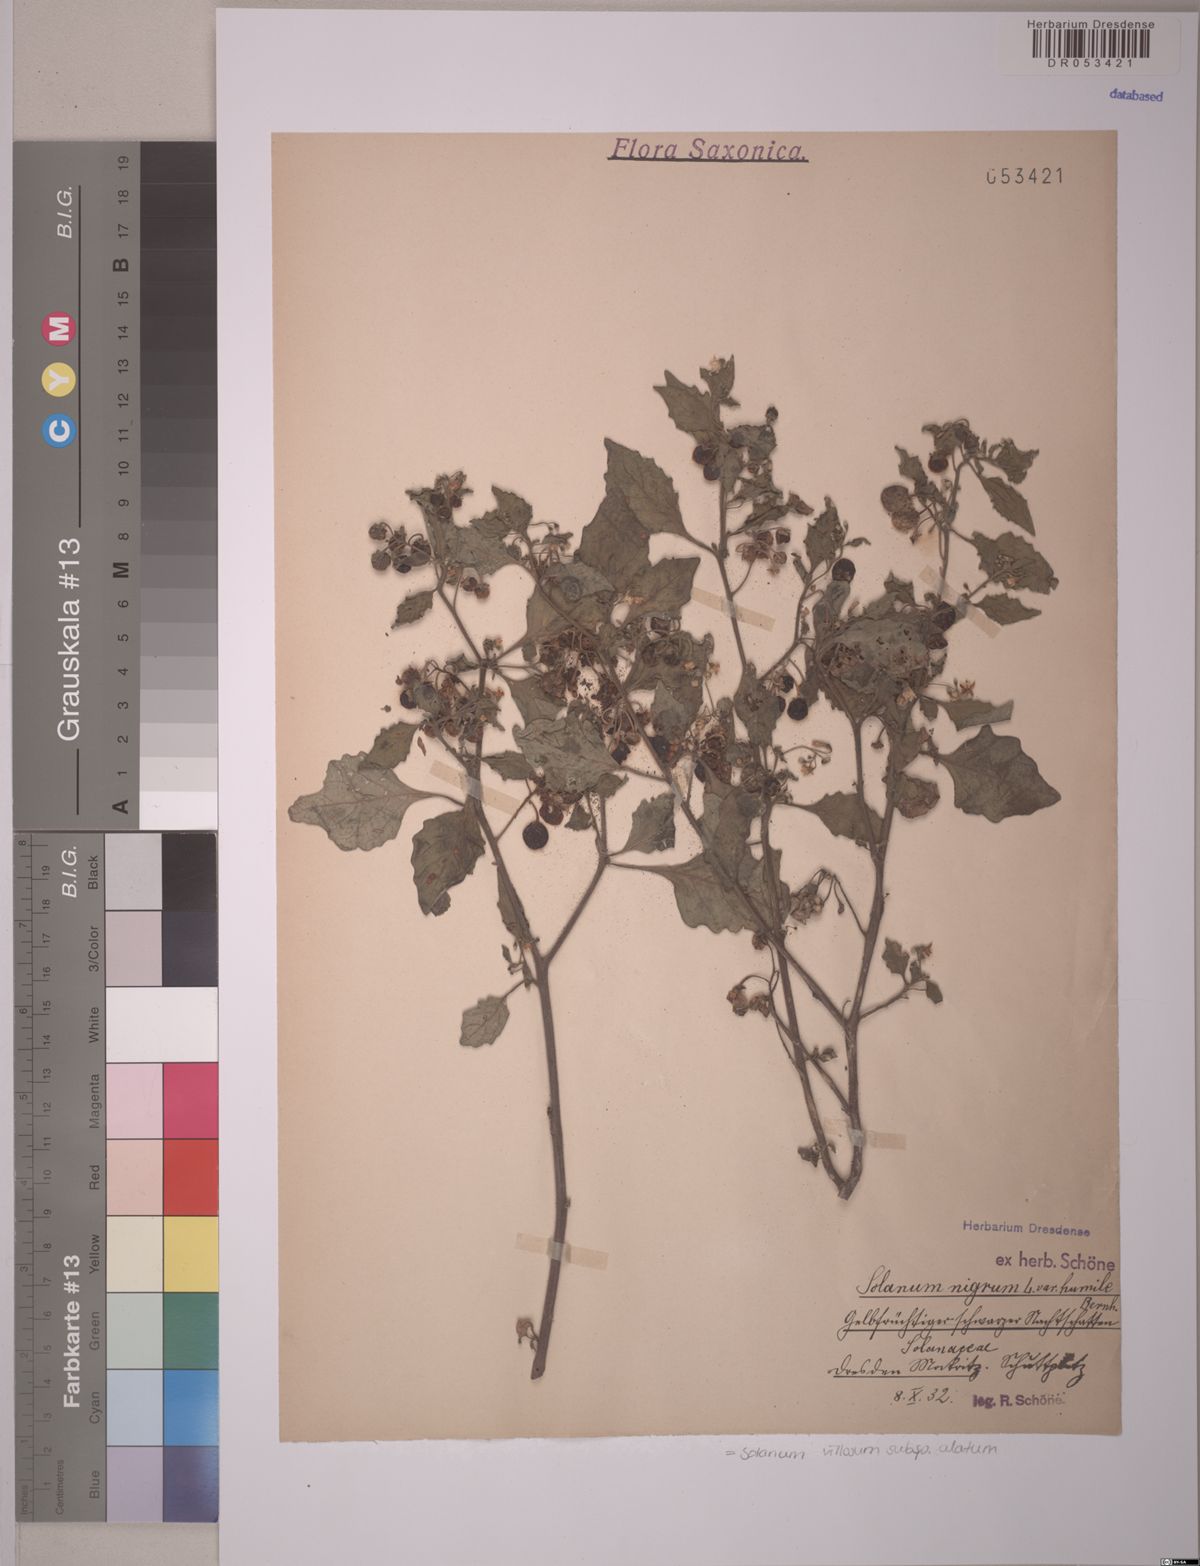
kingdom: Plantae
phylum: Tracheophyta
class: Magnoliopsida
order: Solanales
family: Solanaceae
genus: Solanum
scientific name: Solanum alatum
